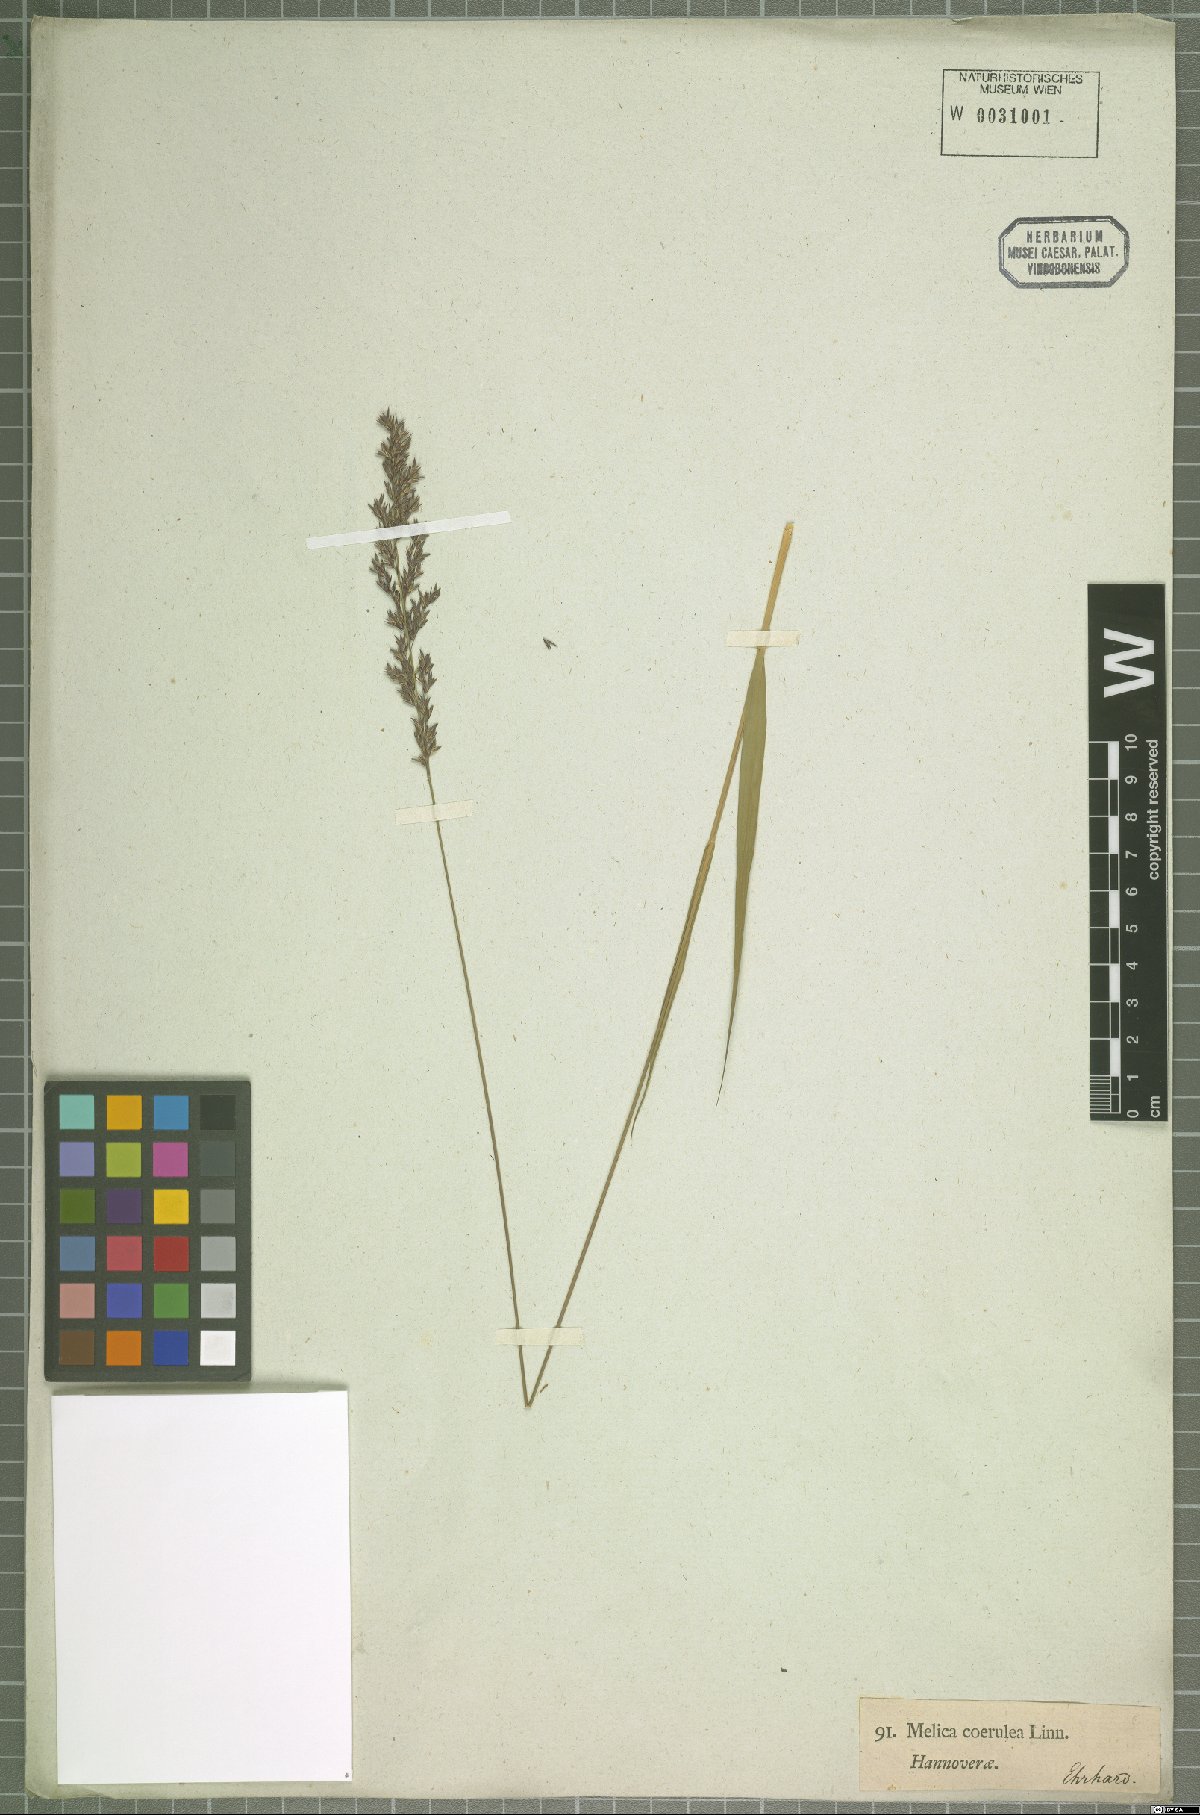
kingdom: Plantae
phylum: Tracheophyta
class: Liliopsida
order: Poales
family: Poaceae
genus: Molinia
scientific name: Molinia caerulea
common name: Purple moor-grass
